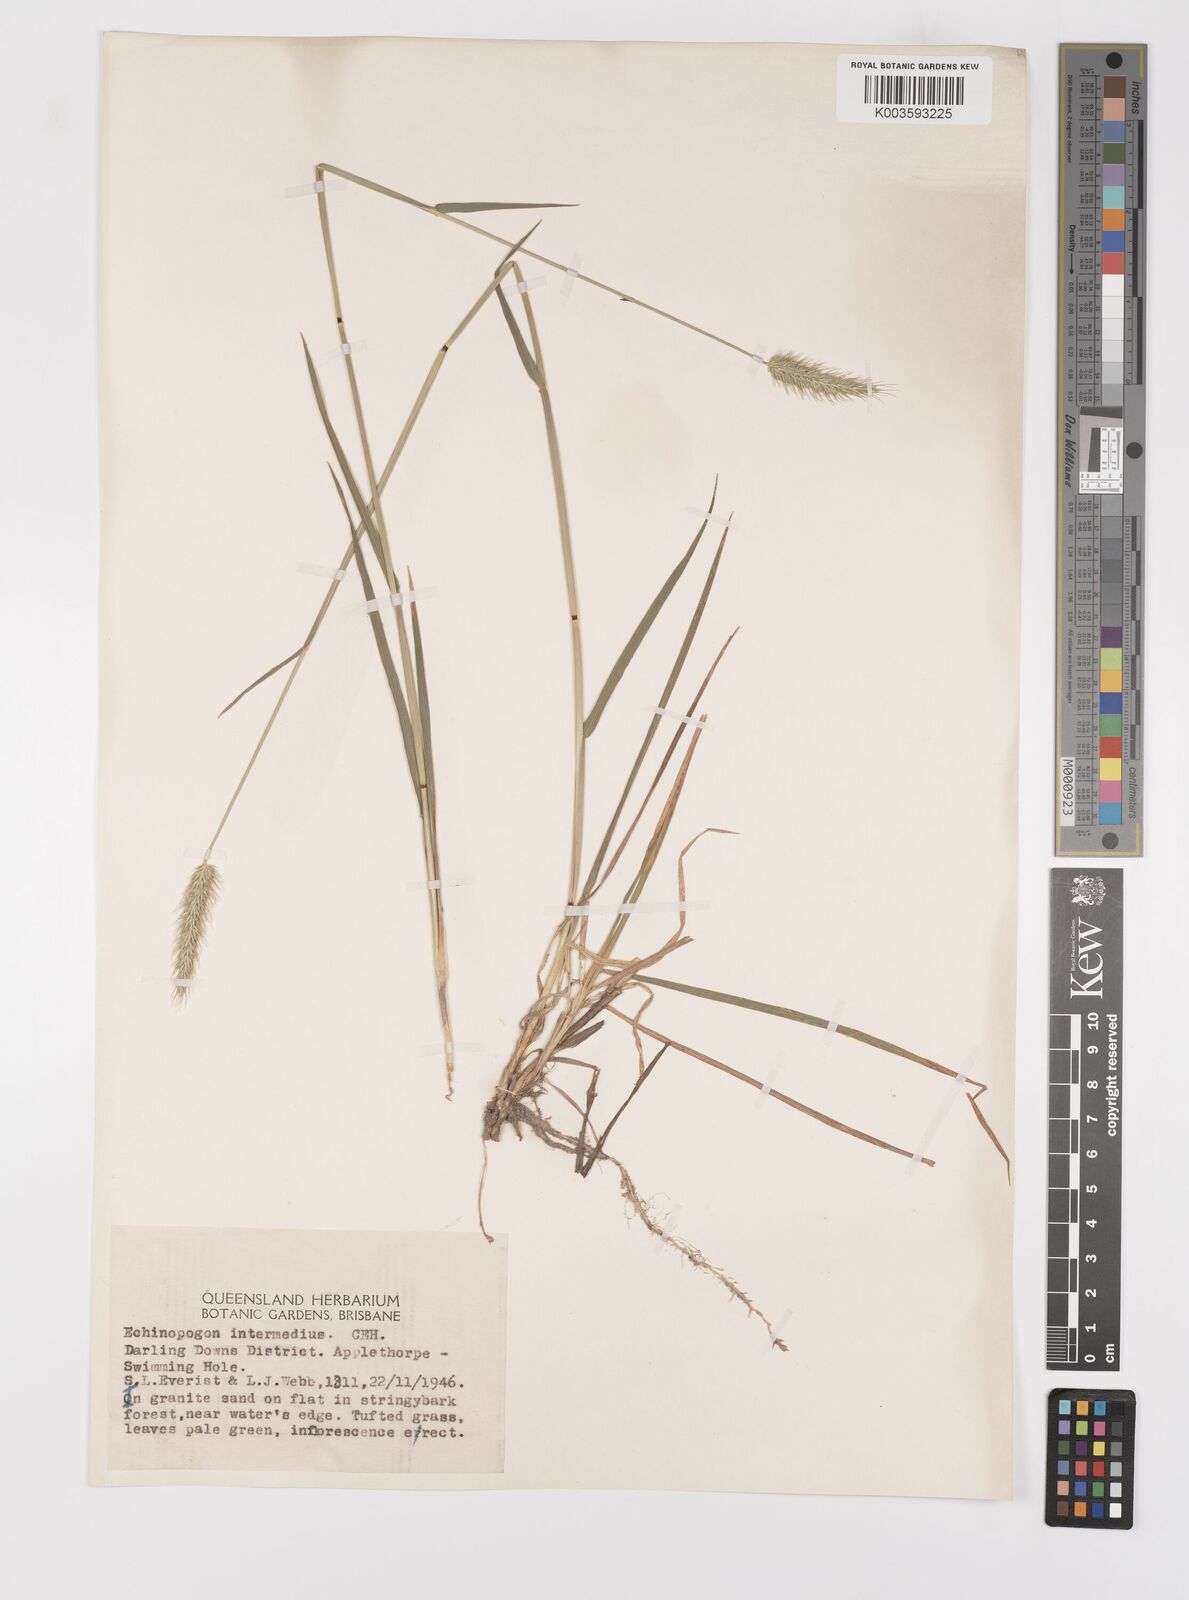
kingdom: Plantae
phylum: Tracheophyta
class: Liliopsida
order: Poales
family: Poaceae
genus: Echinopogon
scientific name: Echinopogon caespitosus
